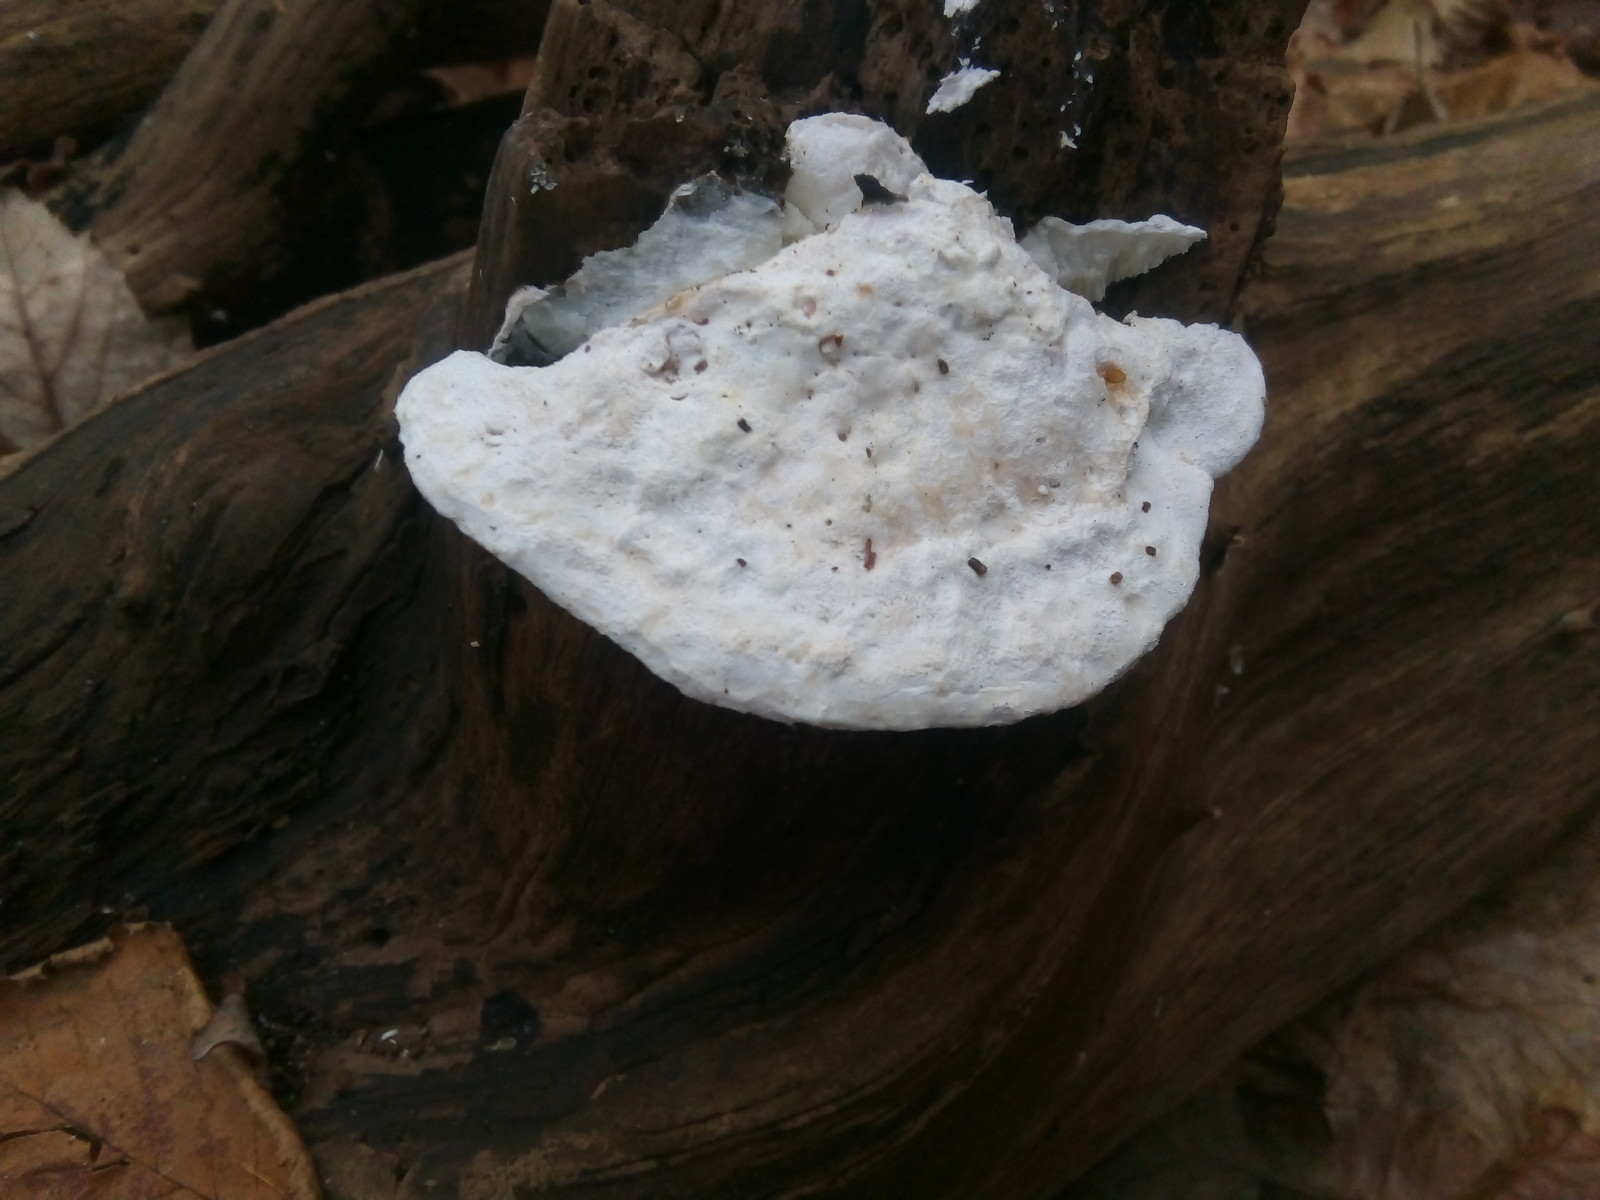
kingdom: Fungi
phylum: Basidiomycota
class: Agaricomycetes
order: Polyporales
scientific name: Polyporales
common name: poresvampordenen
